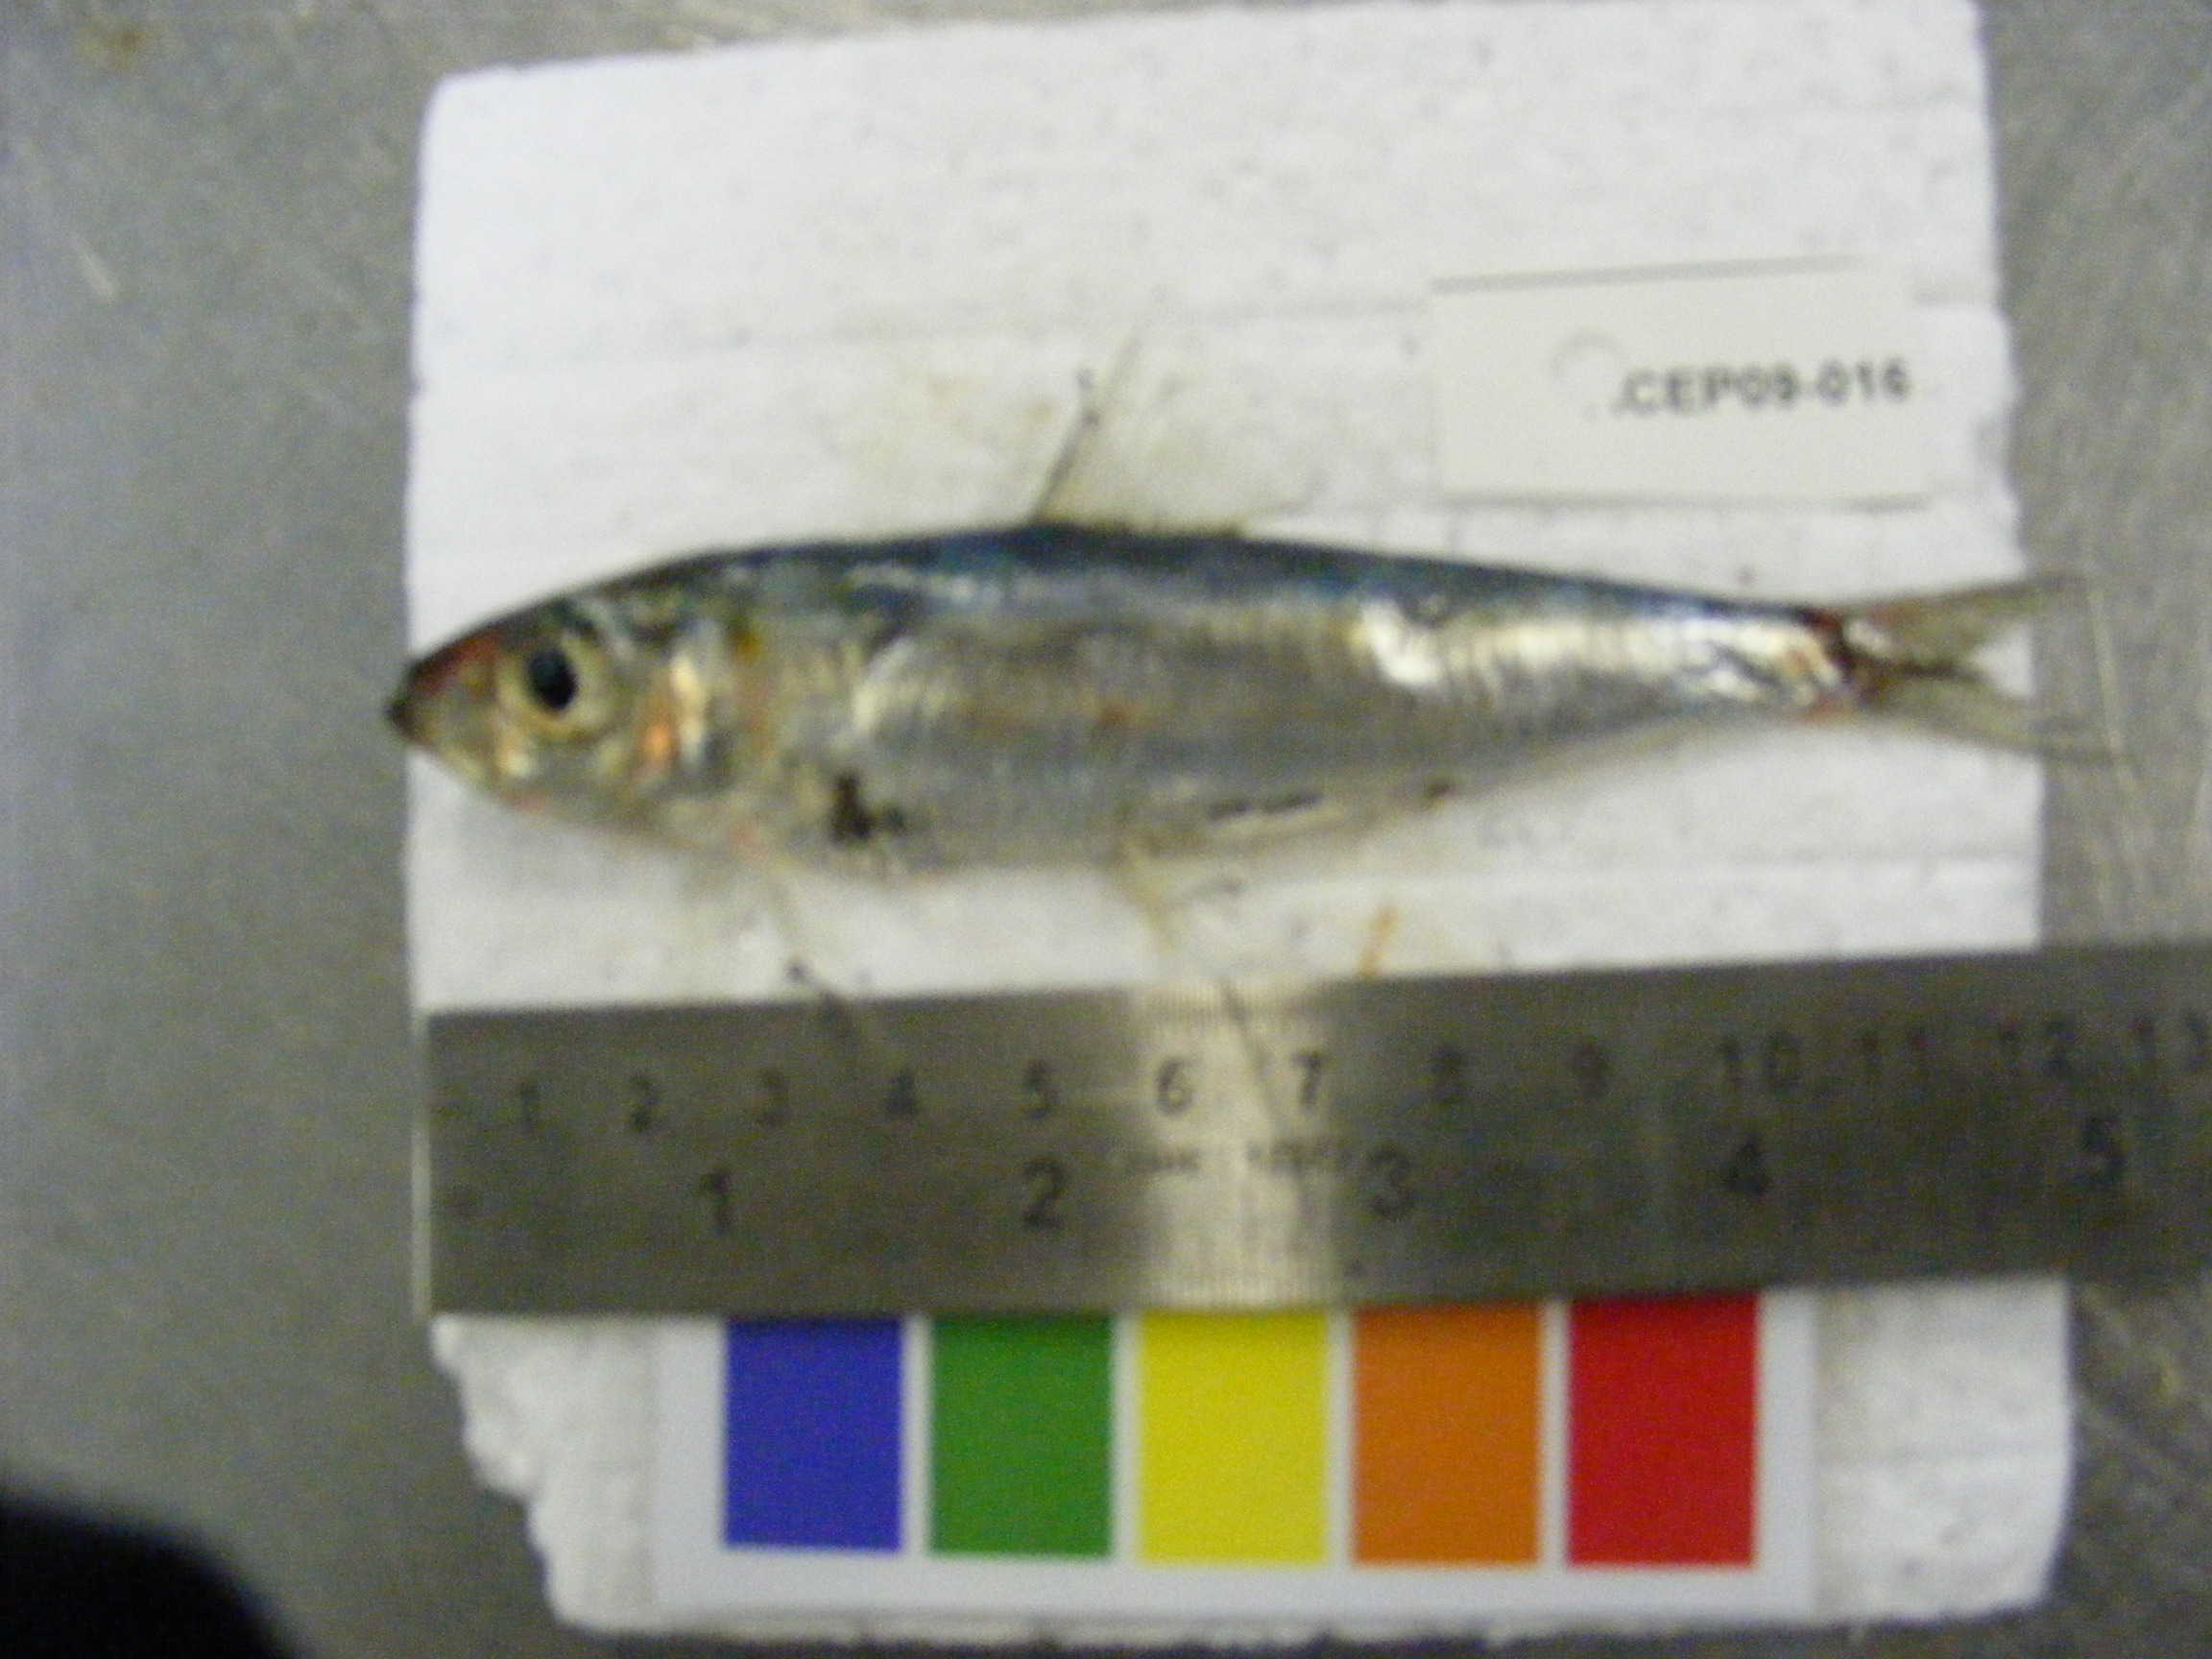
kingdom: Animalia
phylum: Chordata
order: Clupeiformes
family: Clupeidae
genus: Sardinella
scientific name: Sardinella
